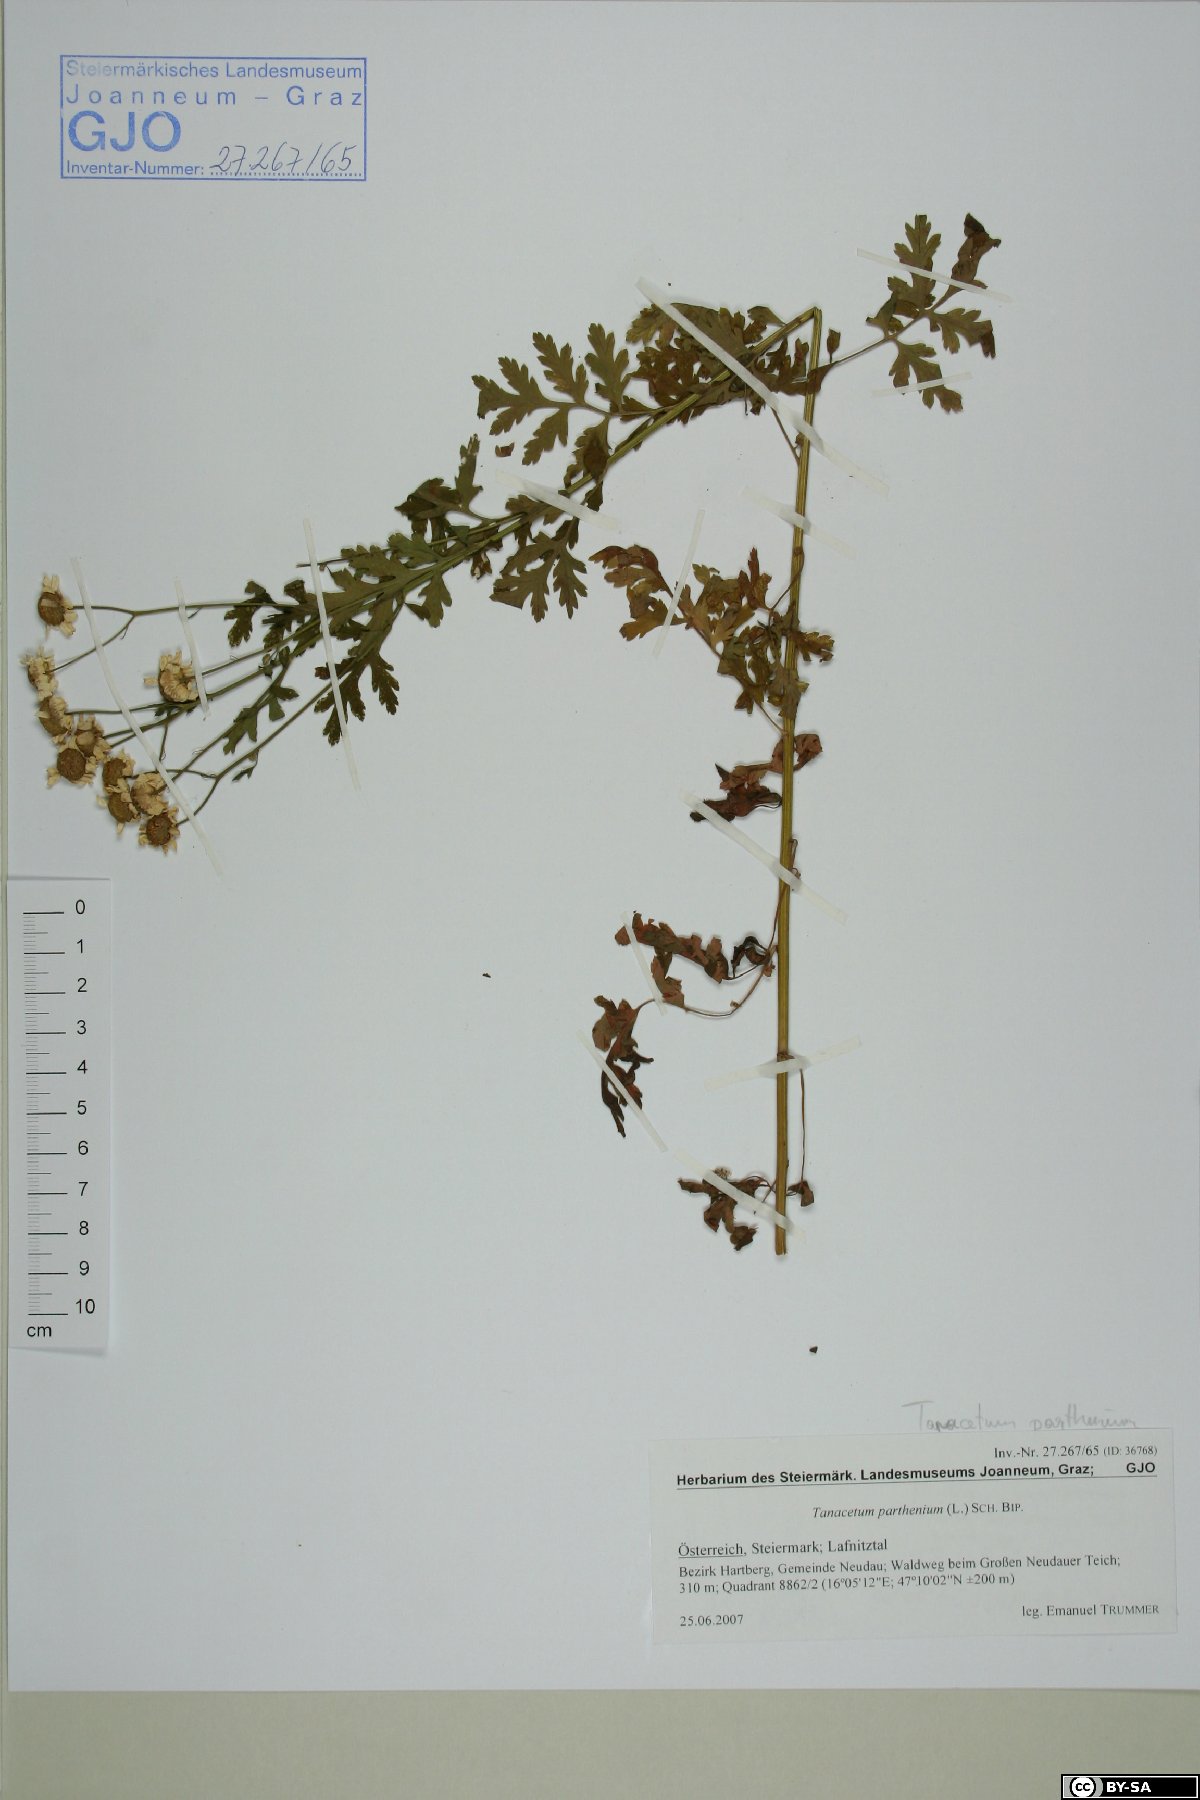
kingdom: Plantae
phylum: Tracheophyta
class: Magnoliopsida
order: Asterales
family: Asteraceae
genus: Tanacetum
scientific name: Tanacetum parthenium
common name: Feverfew
